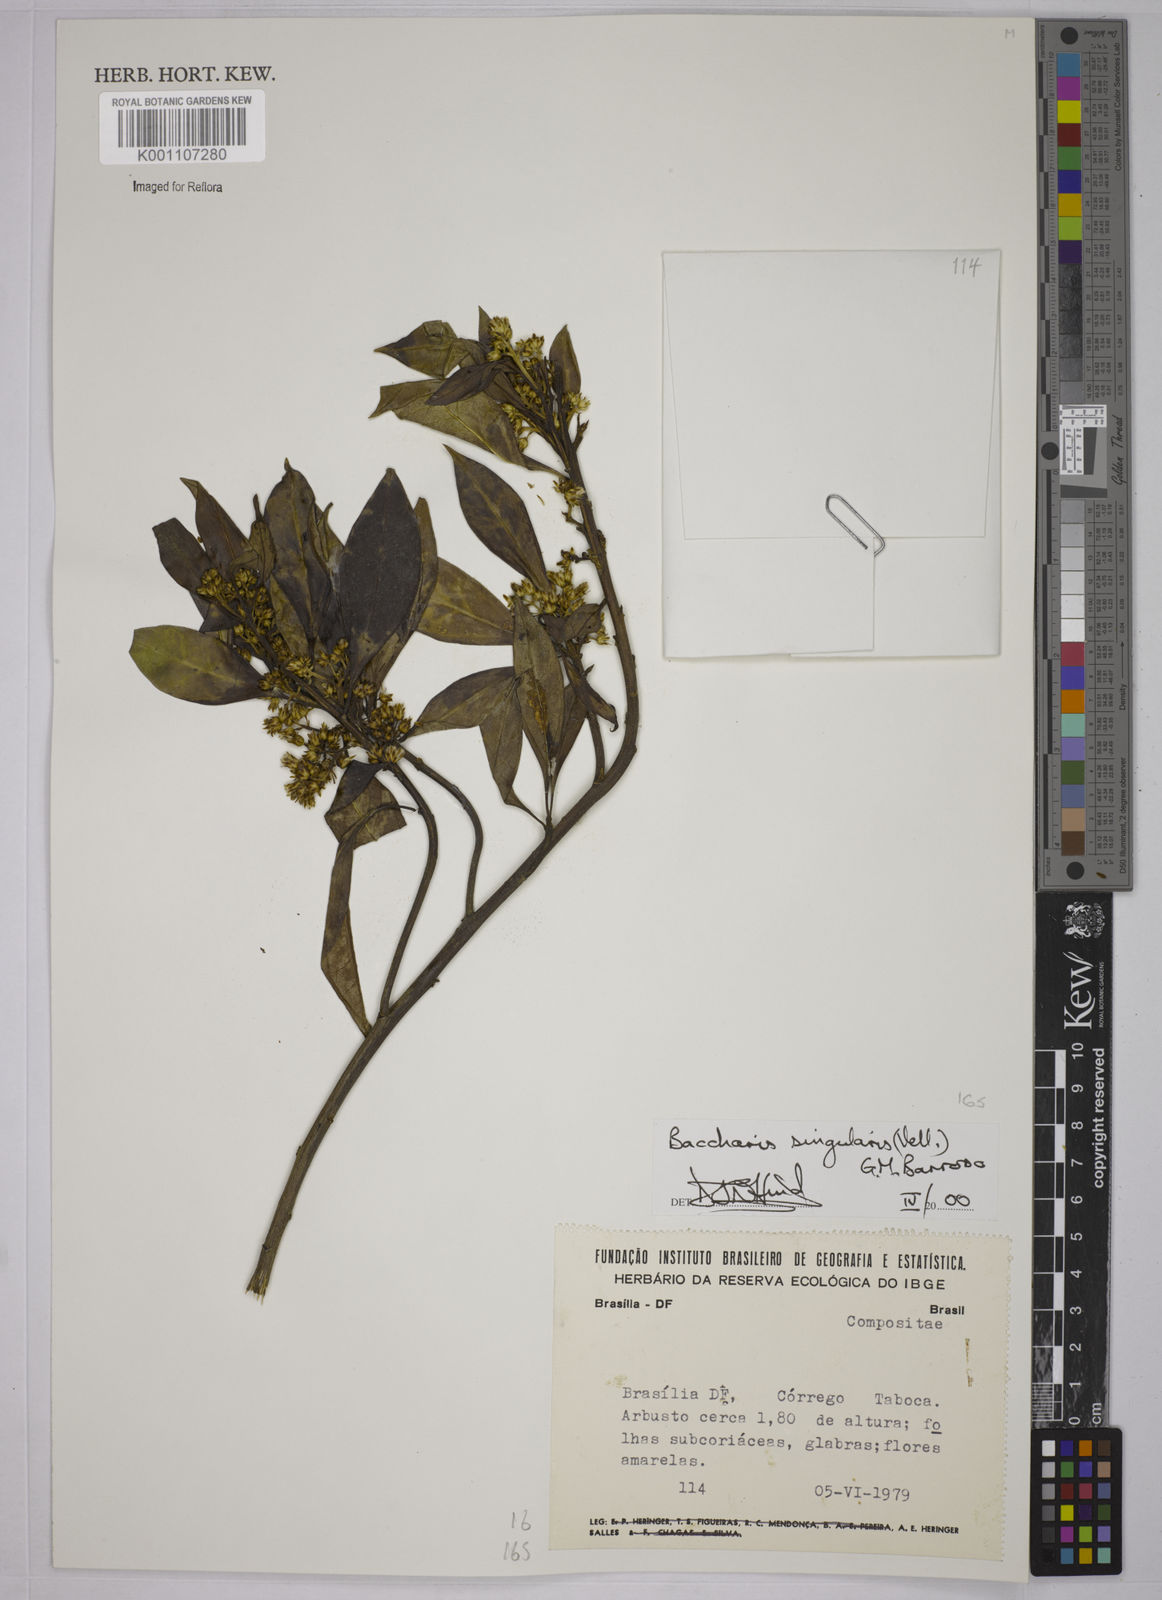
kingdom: Plantae
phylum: Tracheophyta
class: Magnoliopsida
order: Asterales
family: Asteraceae
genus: Baccharis
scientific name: Baccharis singularis
